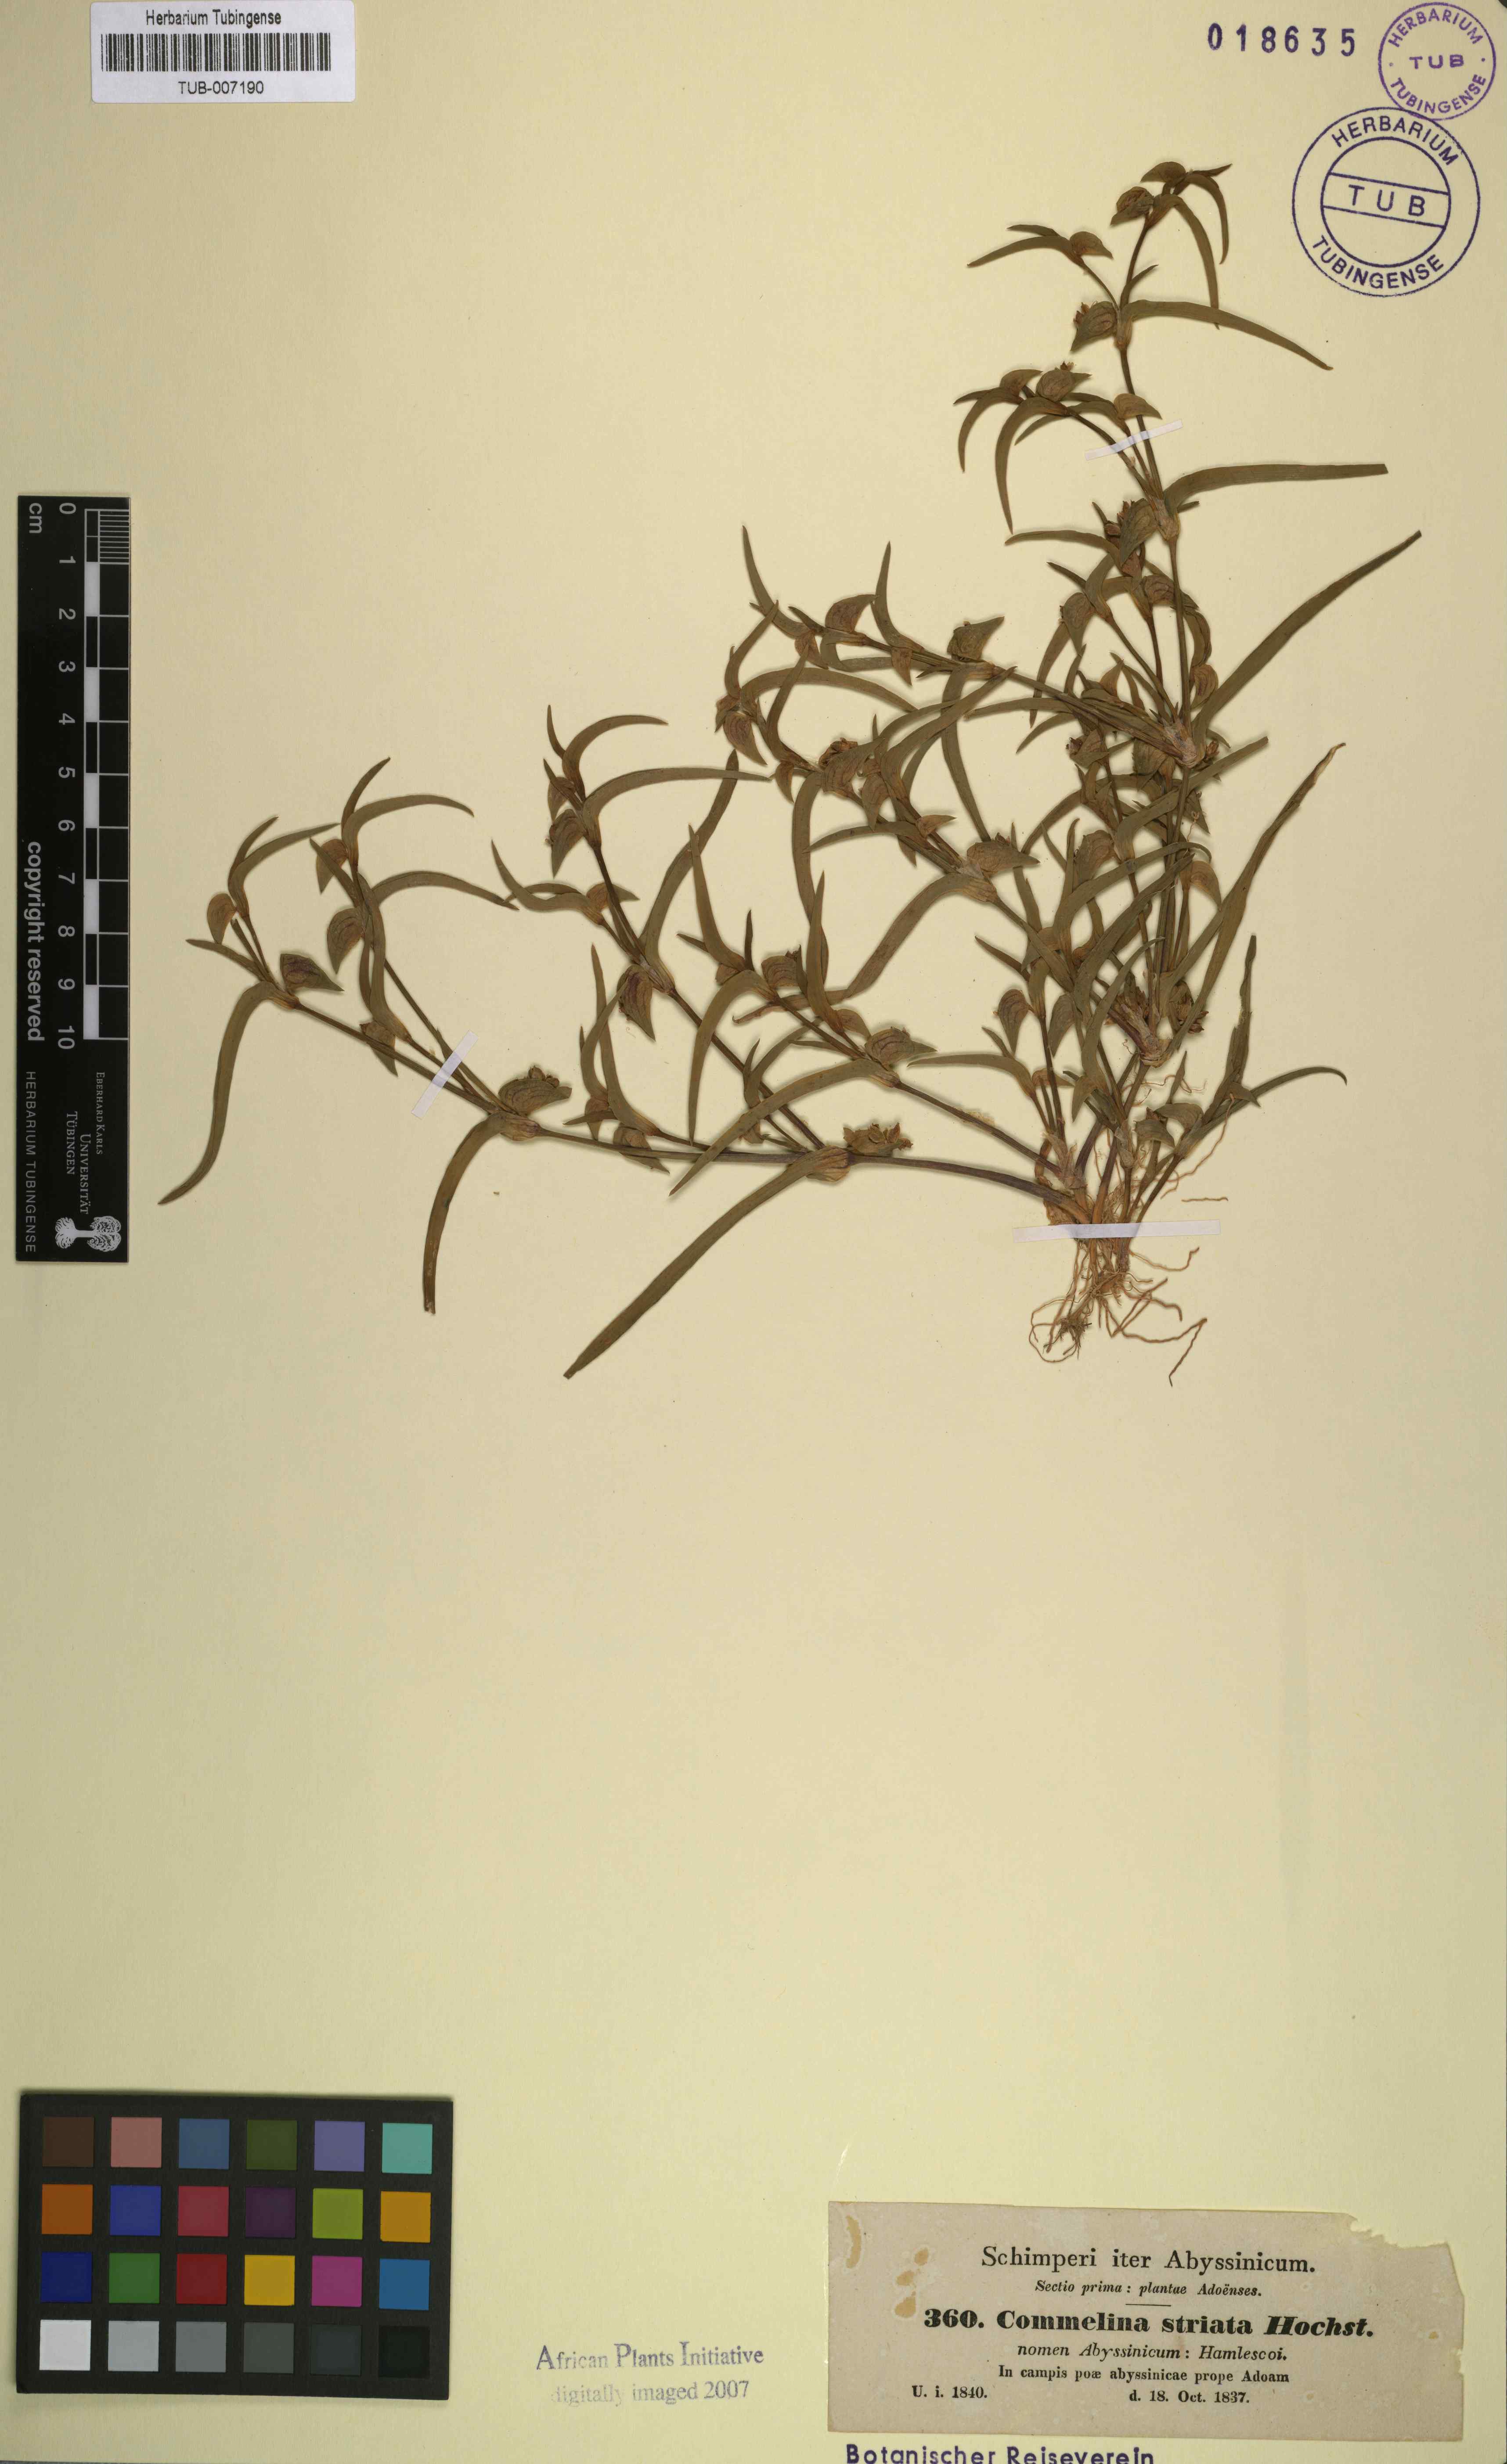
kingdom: Plantae
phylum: Tracheophyta
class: Liliopsida
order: Commelinales
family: Commelinaceae
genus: Commelina
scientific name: Commelina striata
